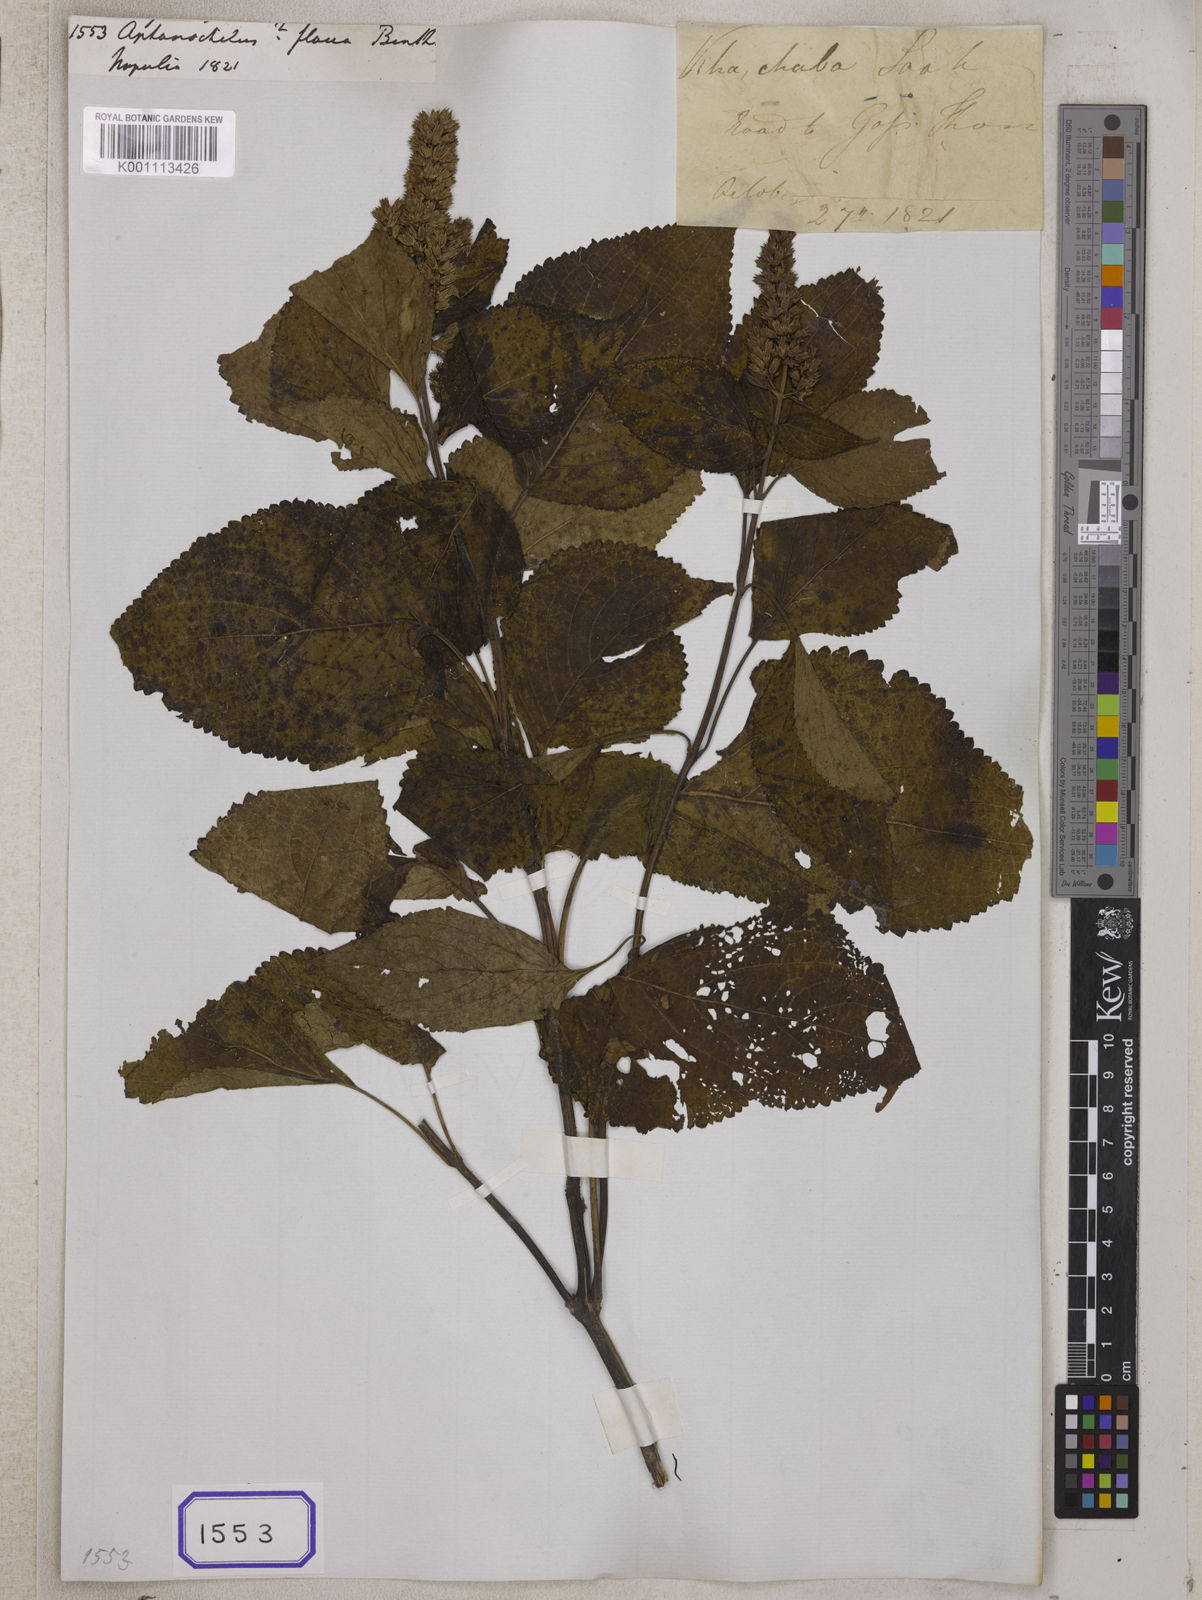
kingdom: Plantae
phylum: Tracheophyta
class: Magnoliopsida
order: Lamiales
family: Lamiaceae
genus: Elsholtzia
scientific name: Elsholtzia flava
